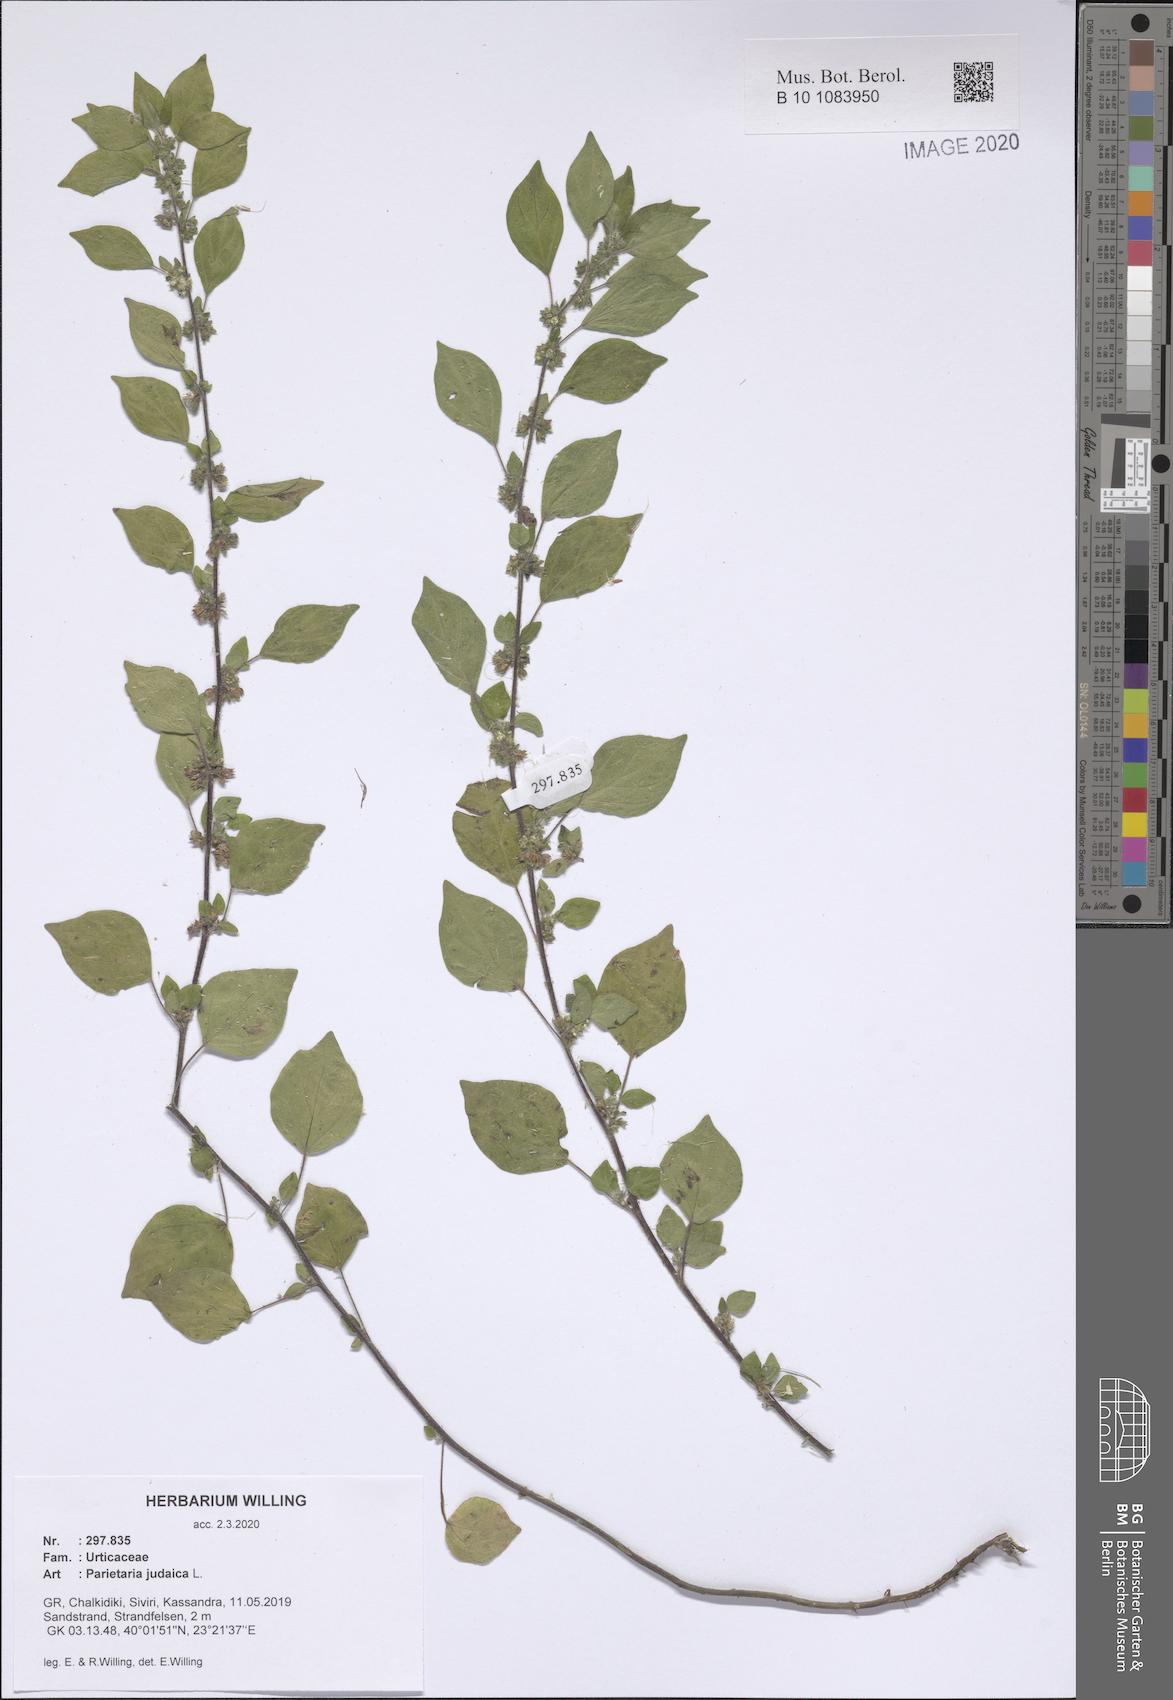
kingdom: Plantae
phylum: Tracheophyta
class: Magnoliopsida
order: Rosales
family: Urticaceae
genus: Parietaria
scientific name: Parietaria judaica
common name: Pellitory-of-the-wall
